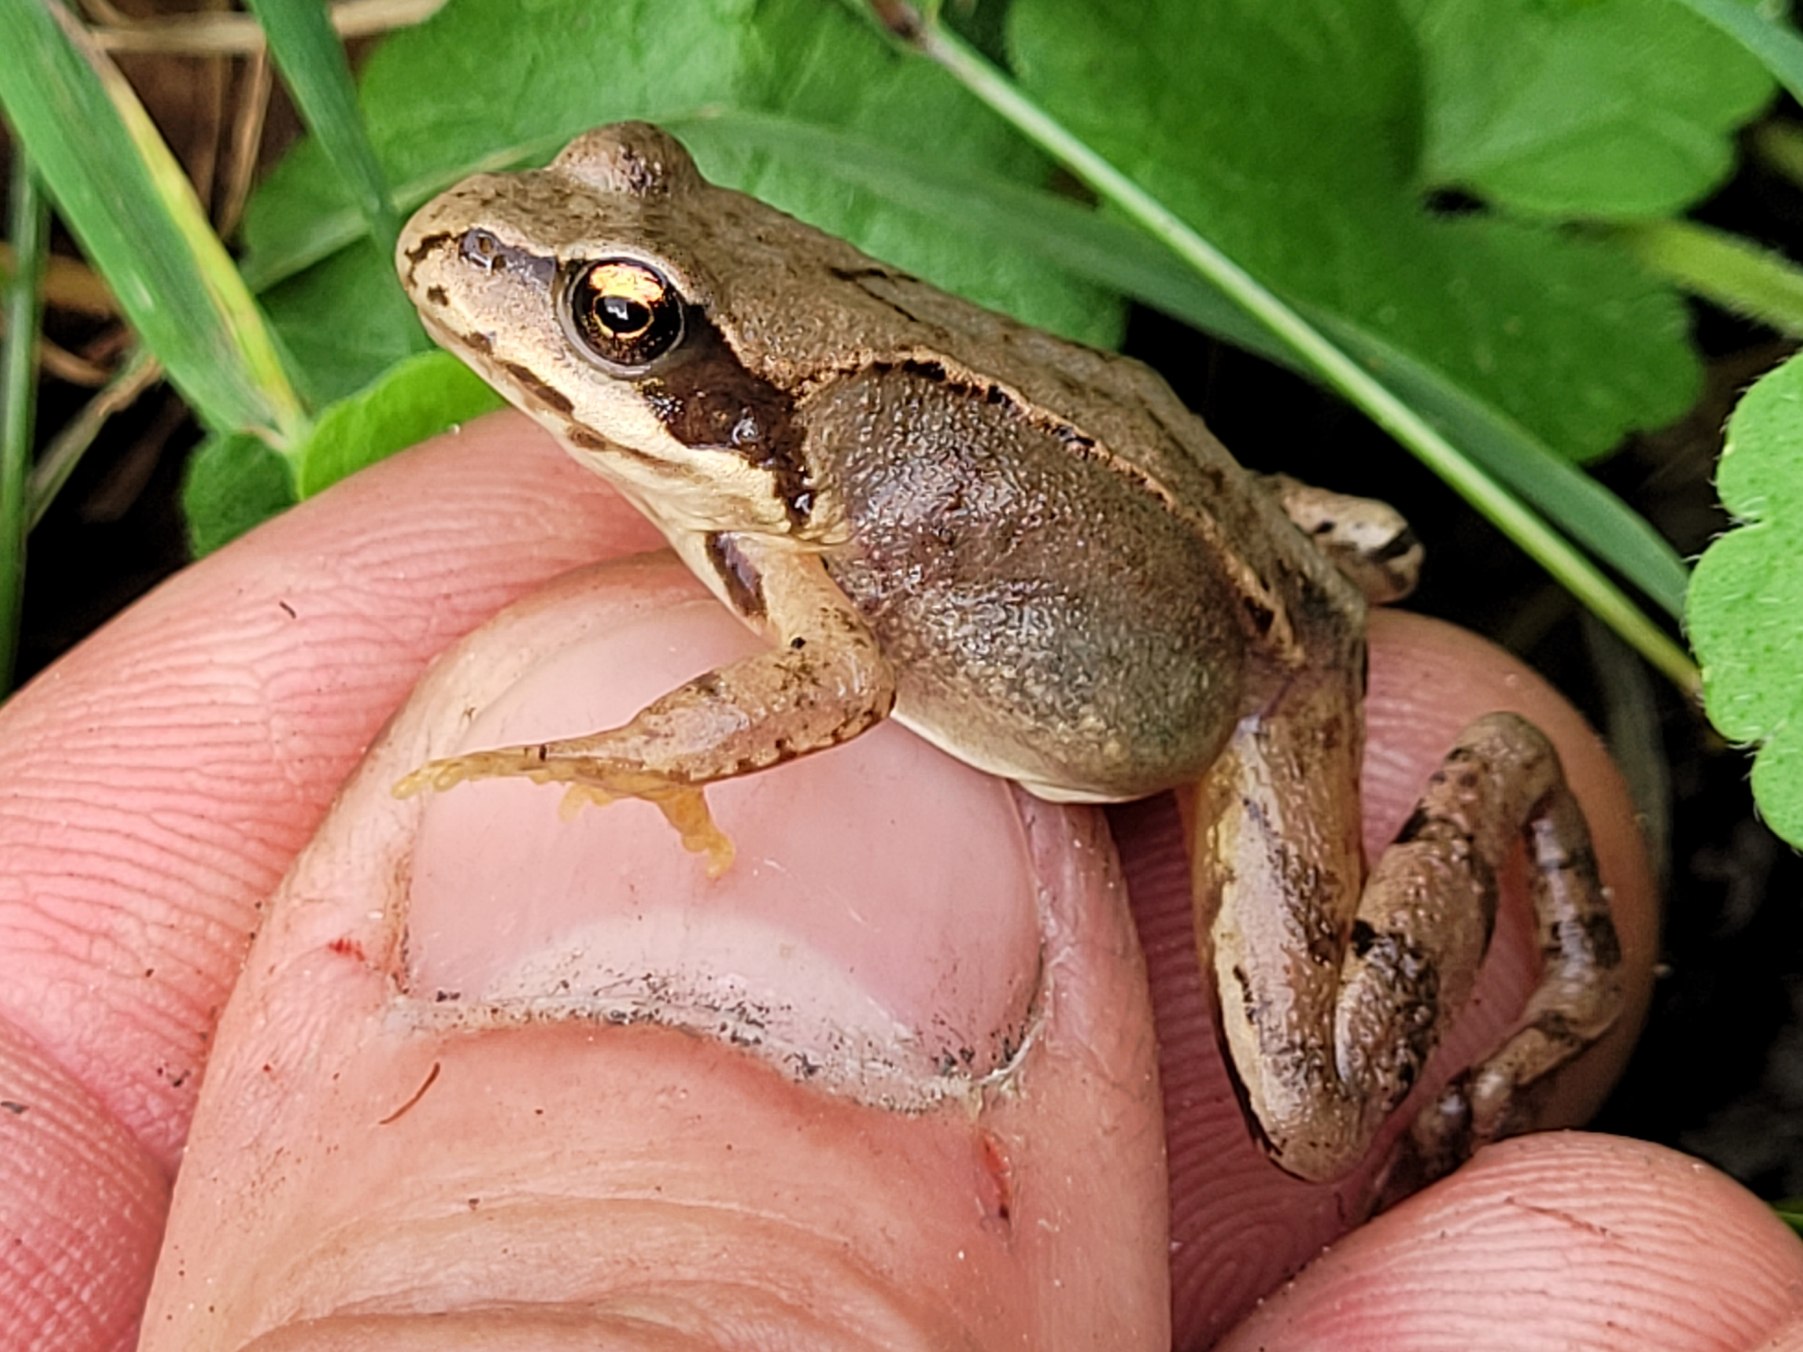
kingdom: Animalia
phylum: Chordata
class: Amphibia
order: Anura
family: Ranidae
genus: Rana
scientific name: Rana temporaria
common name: Butsnudet frø
